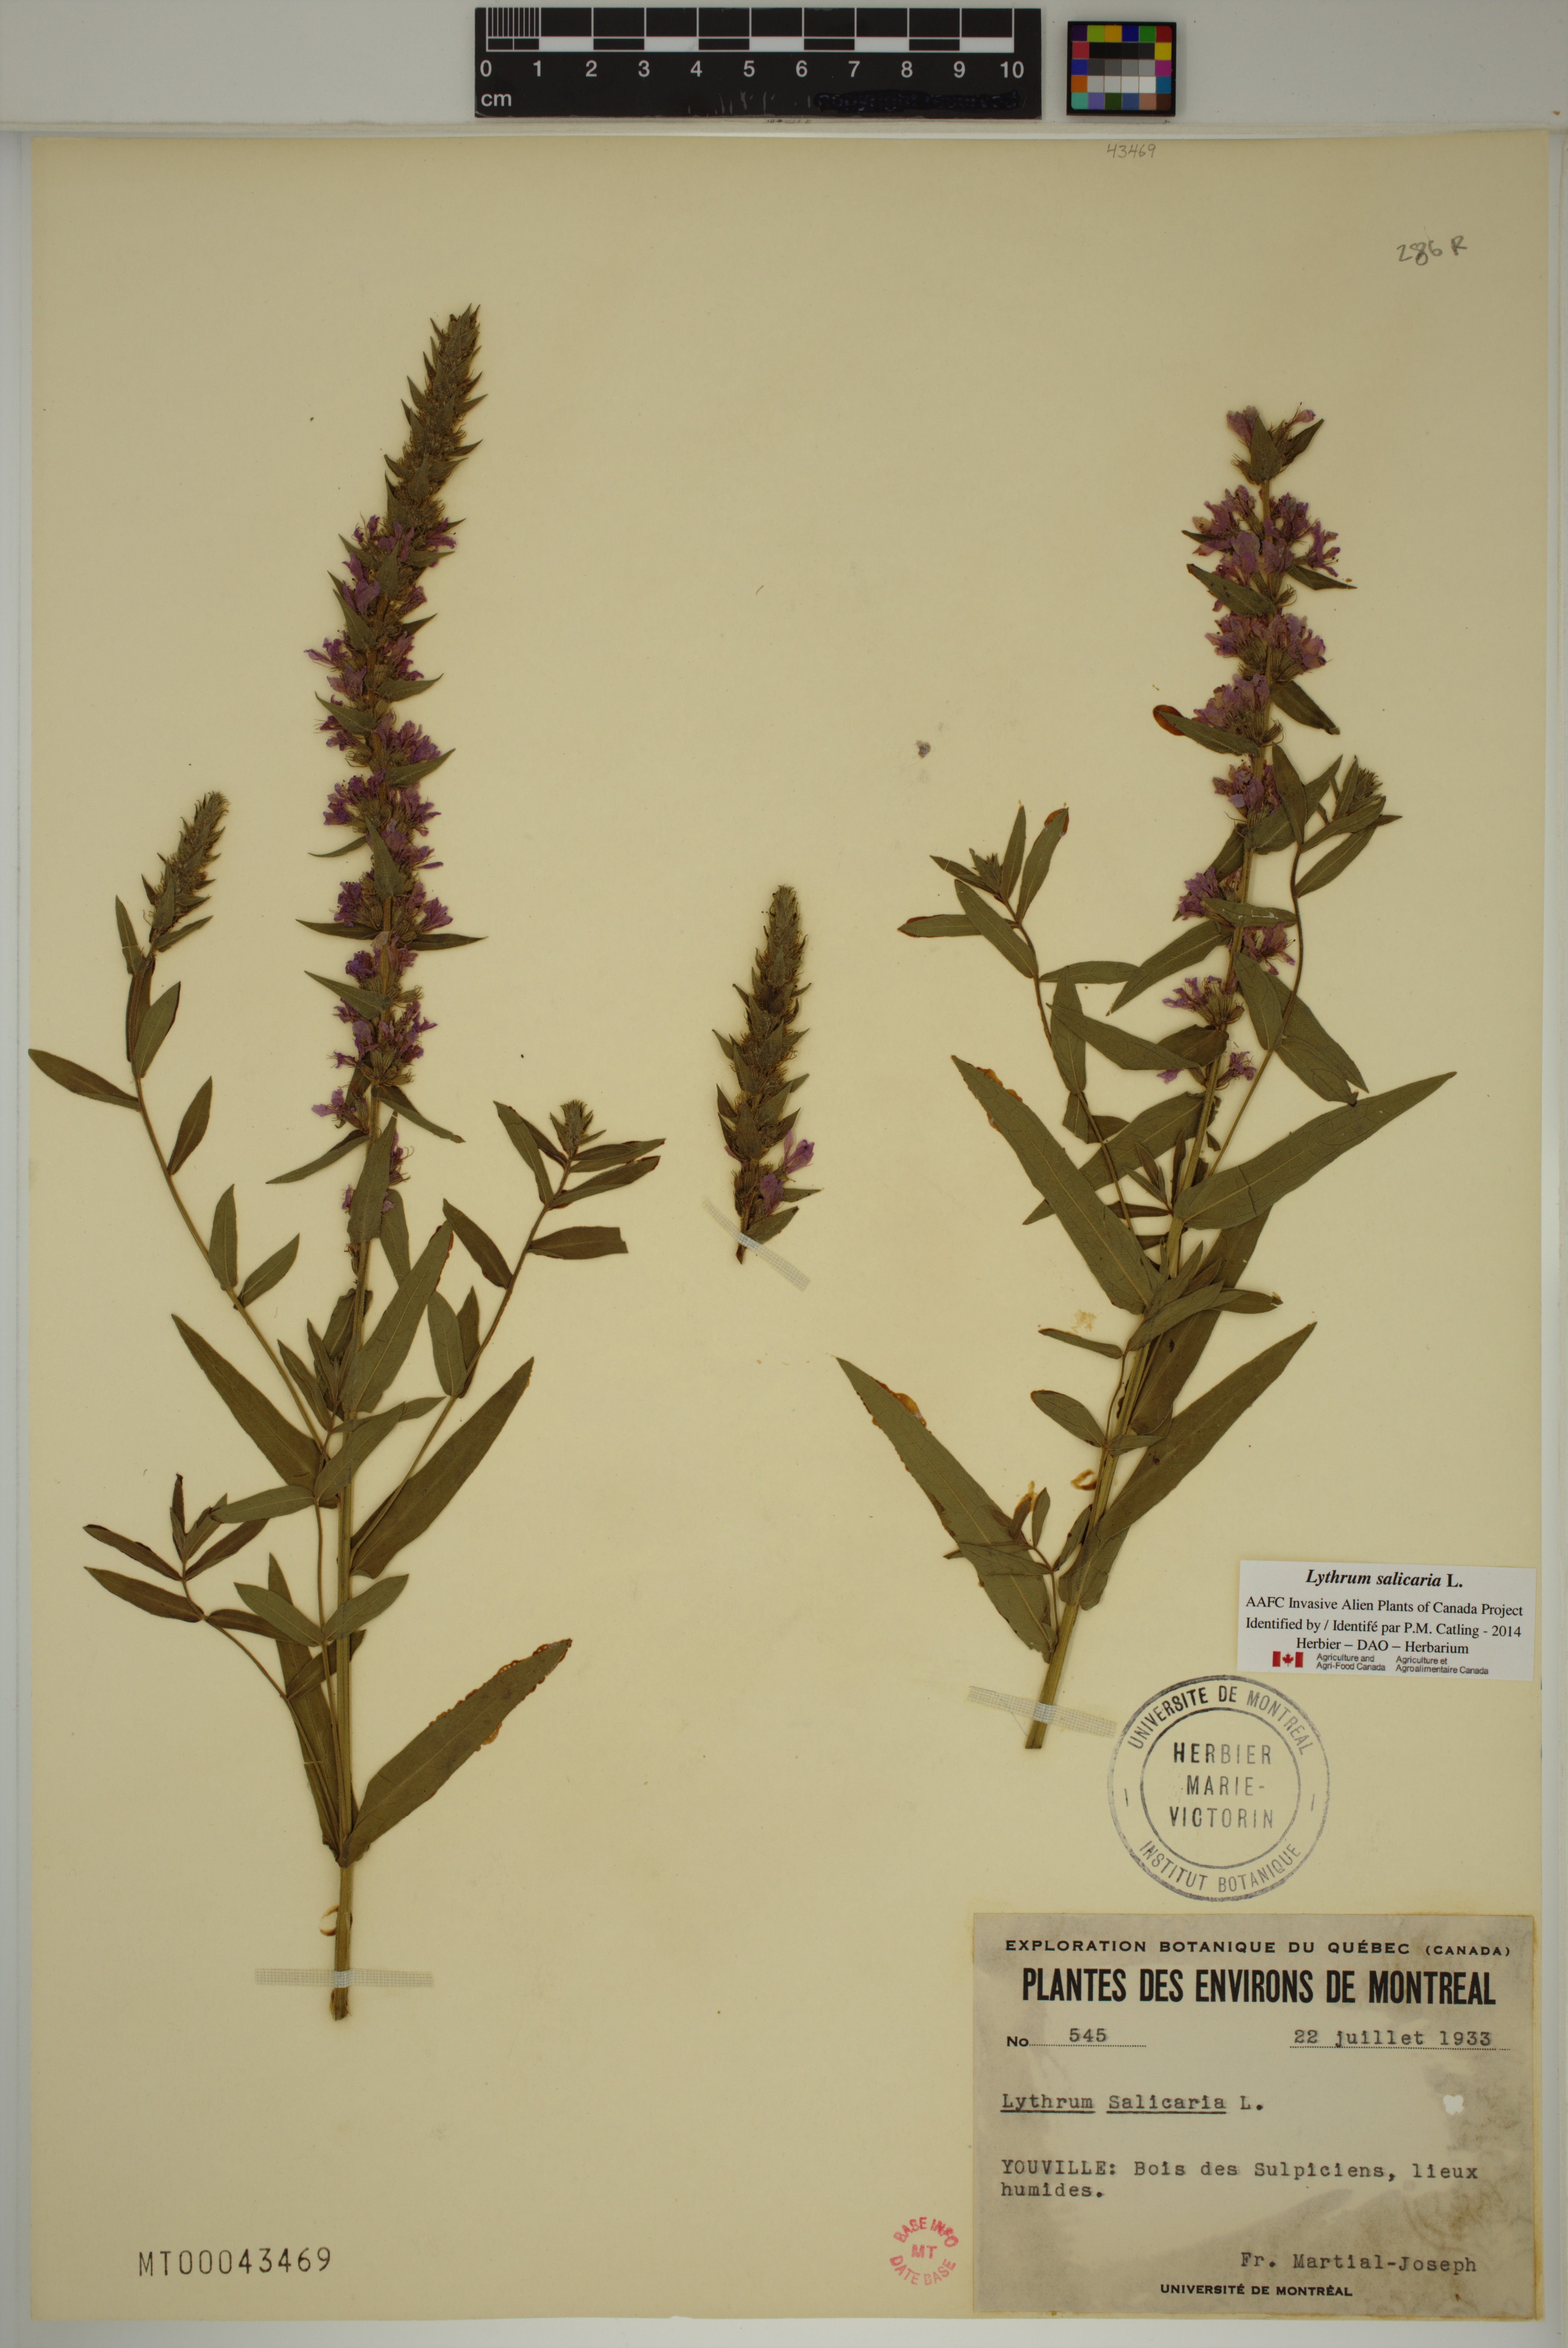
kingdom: Plantae
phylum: Tracheophyta
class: Magnoliopsida
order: Myrtales
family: Lythraceae
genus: Lythrum
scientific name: Lythrum salicaria
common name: Purple loosestrife
